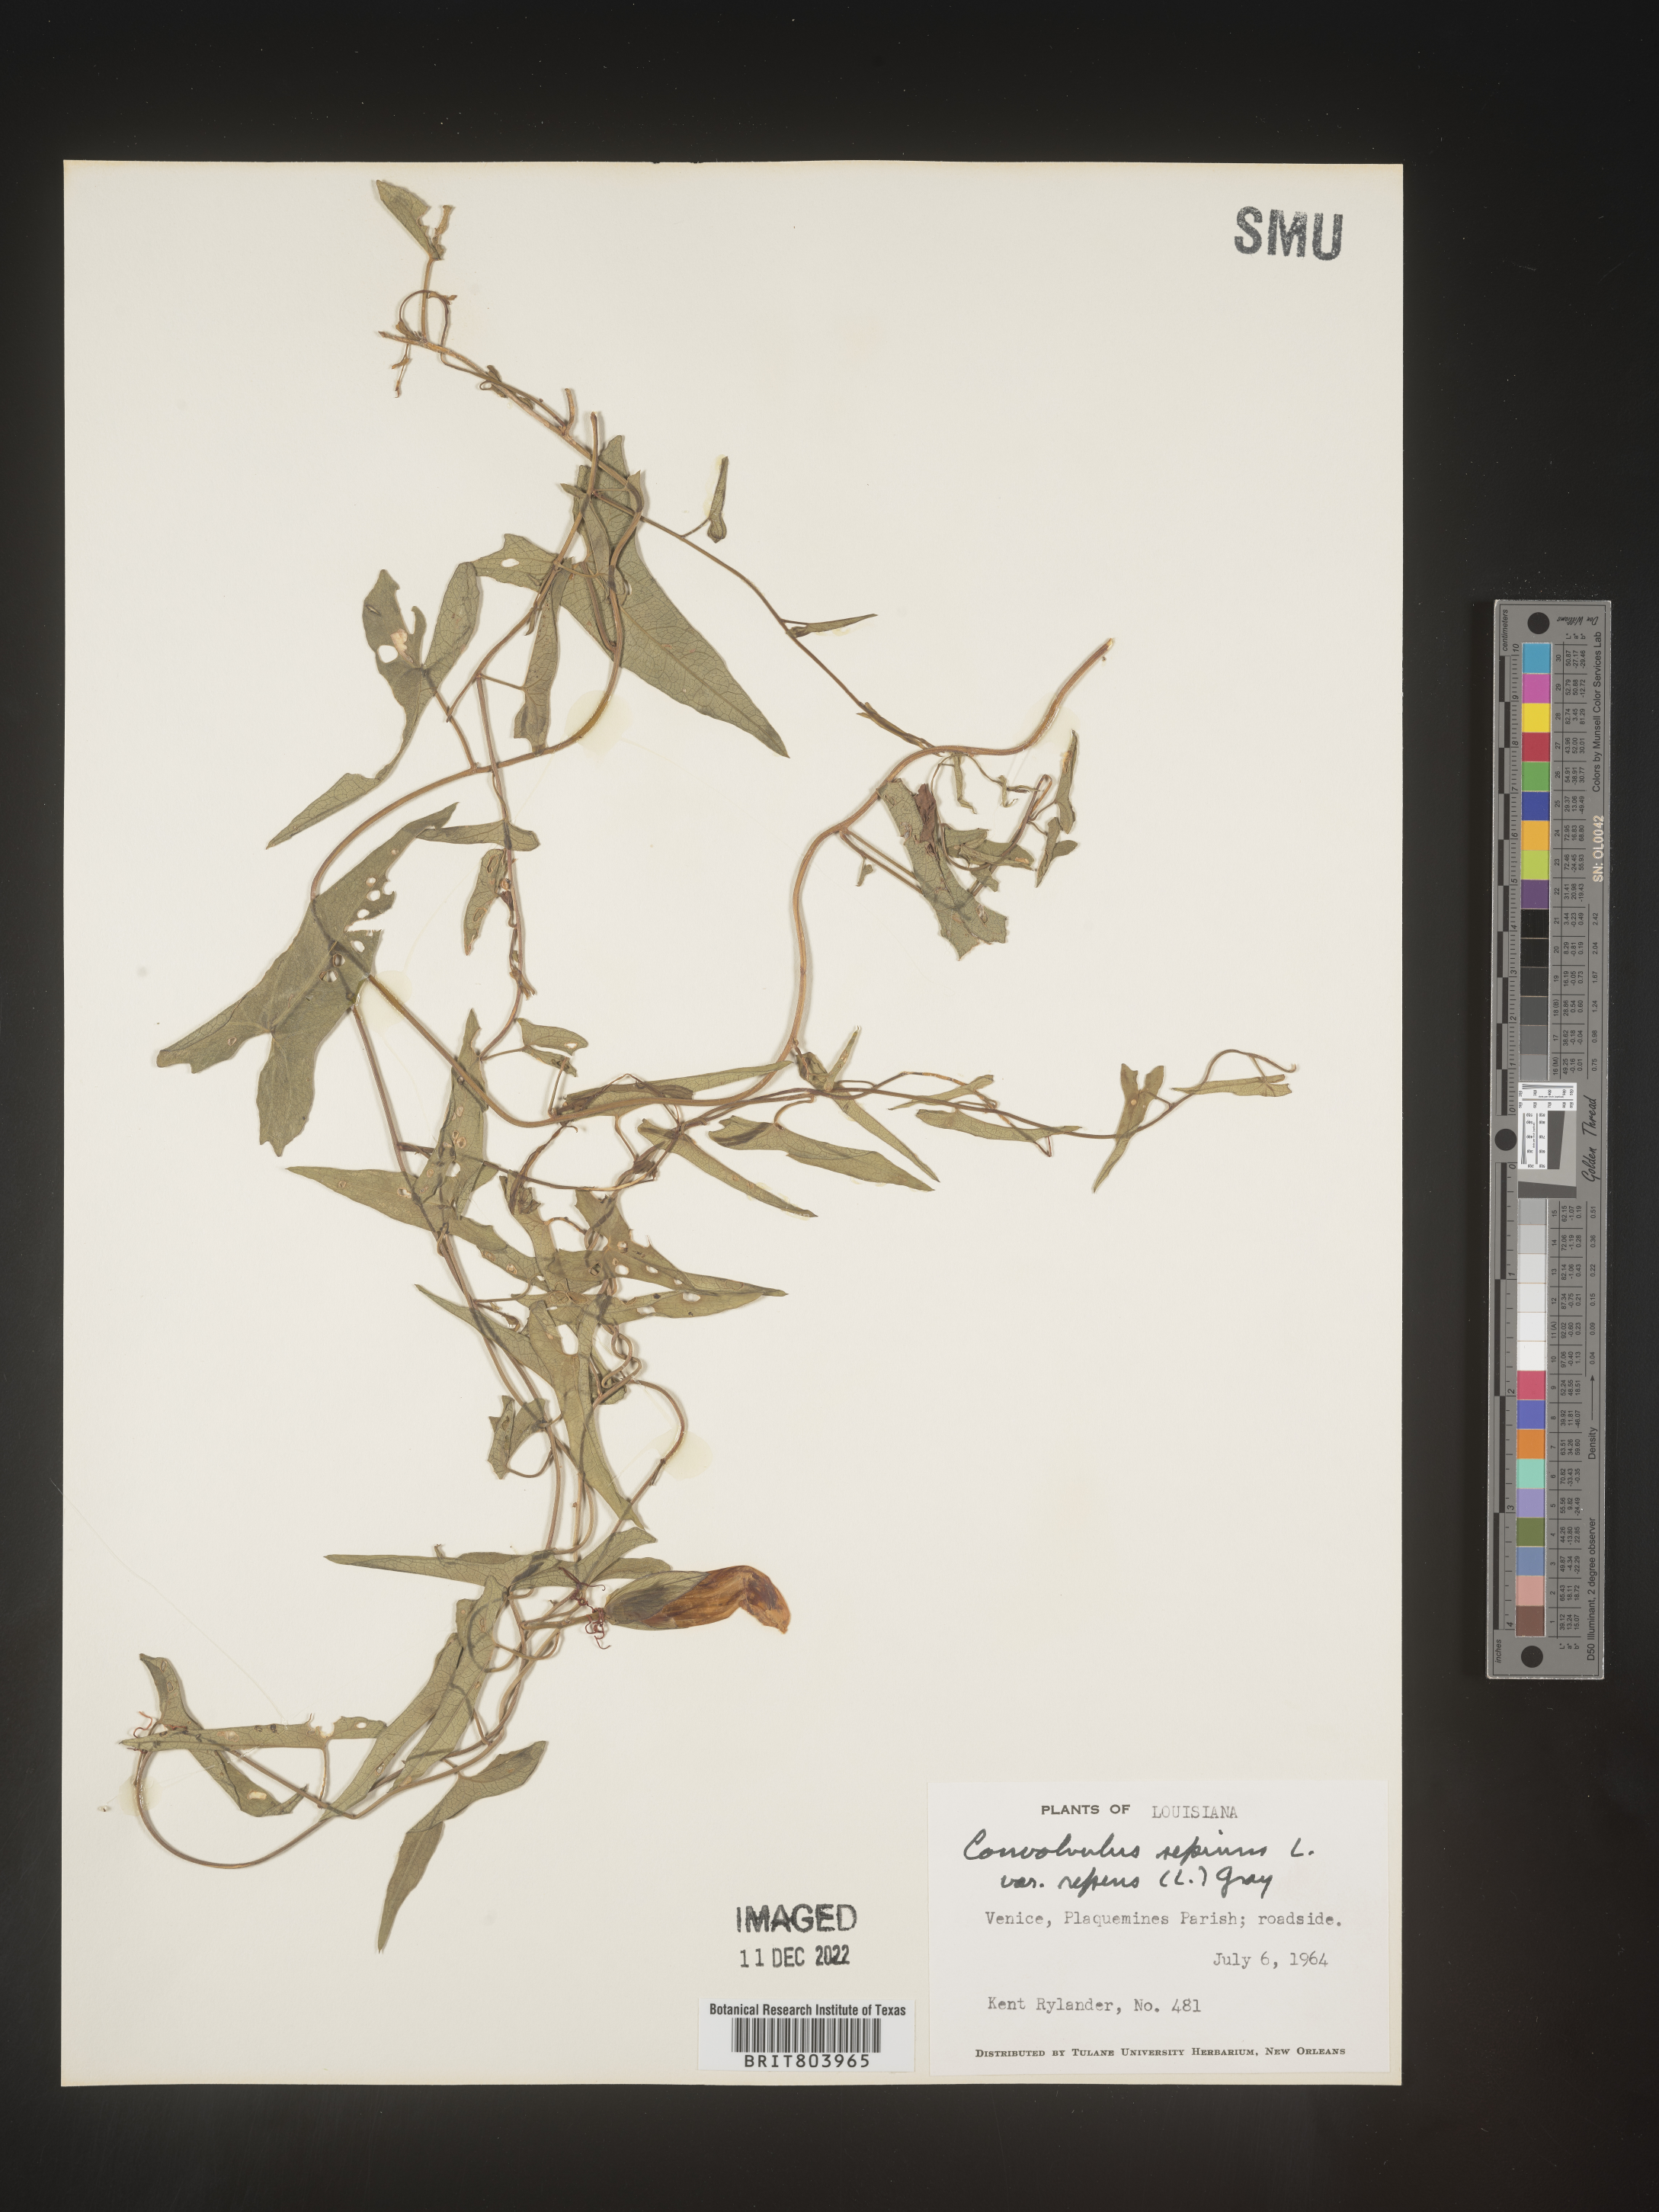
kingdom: Plantae
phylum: Tracheophyta
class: Magnoliopsida
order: Solanales
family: Convolvulaceae
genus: Calystegia
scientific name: Calystegia sepium
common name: Hedge bindweed
